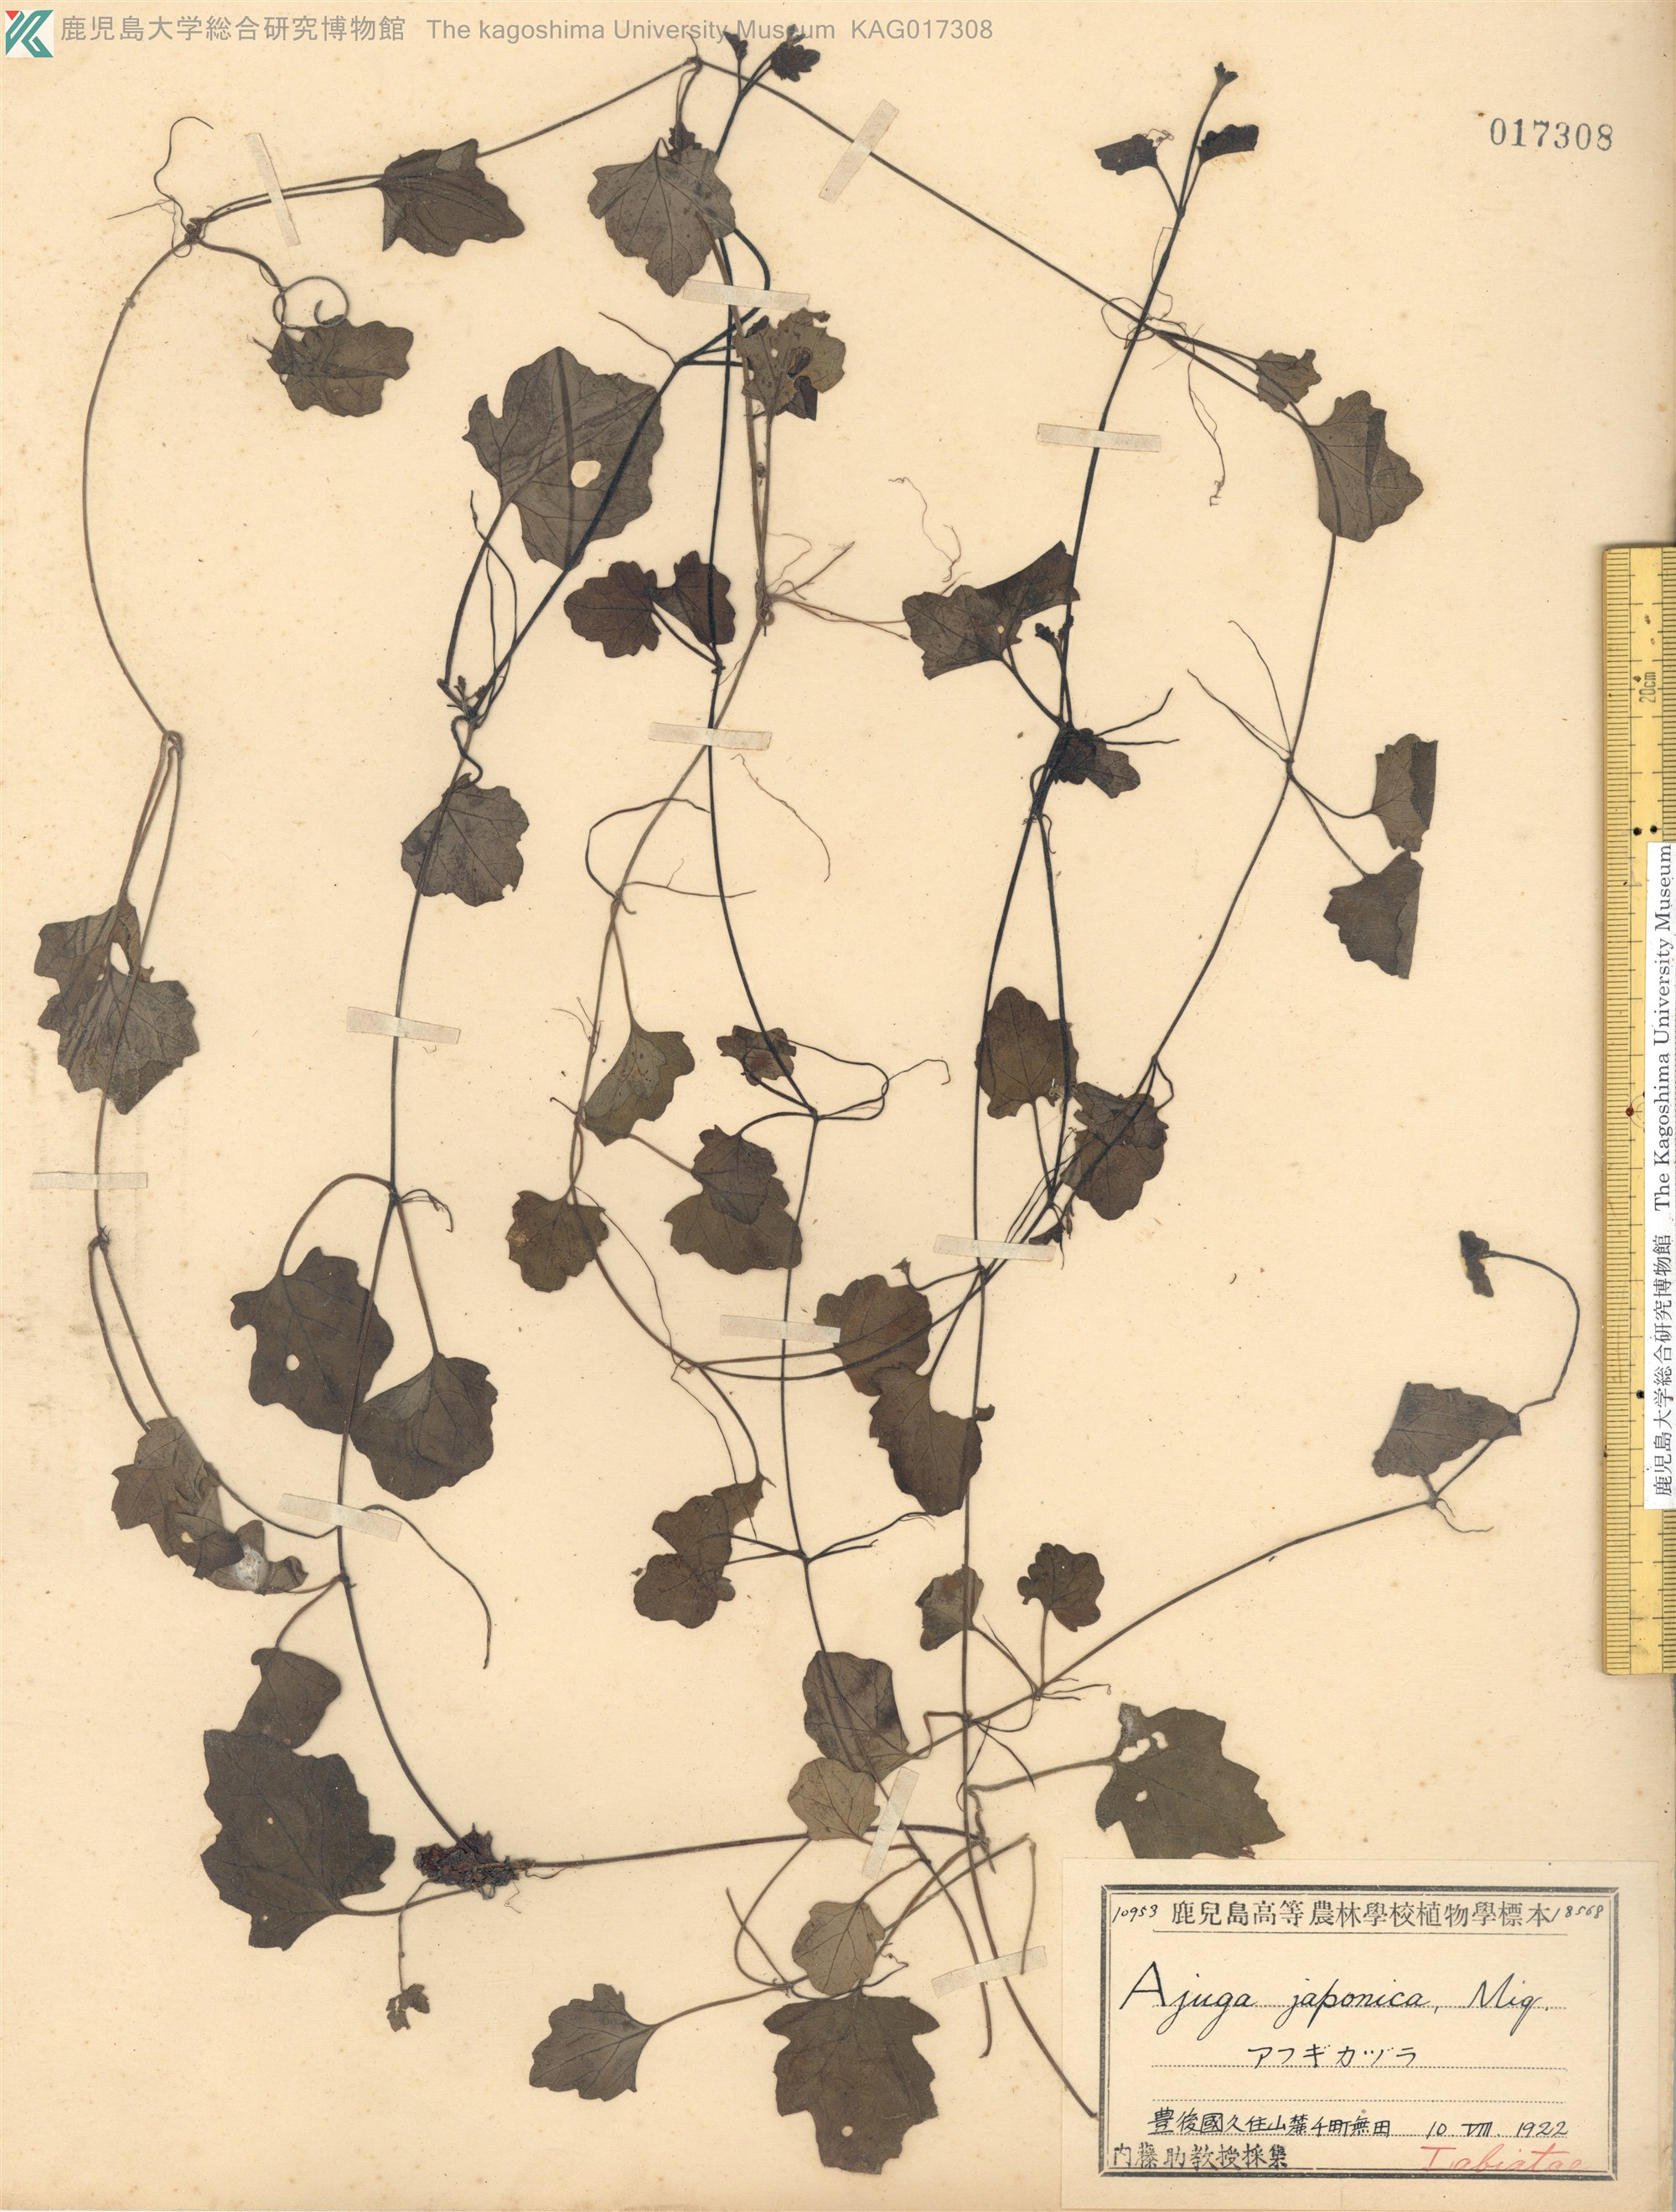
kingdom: Plantae
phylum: Tracheophyta
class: Magnoliopsida
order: Lamiales
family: Lamiaceae
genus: Ajuga
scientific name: Ajuga japonica
